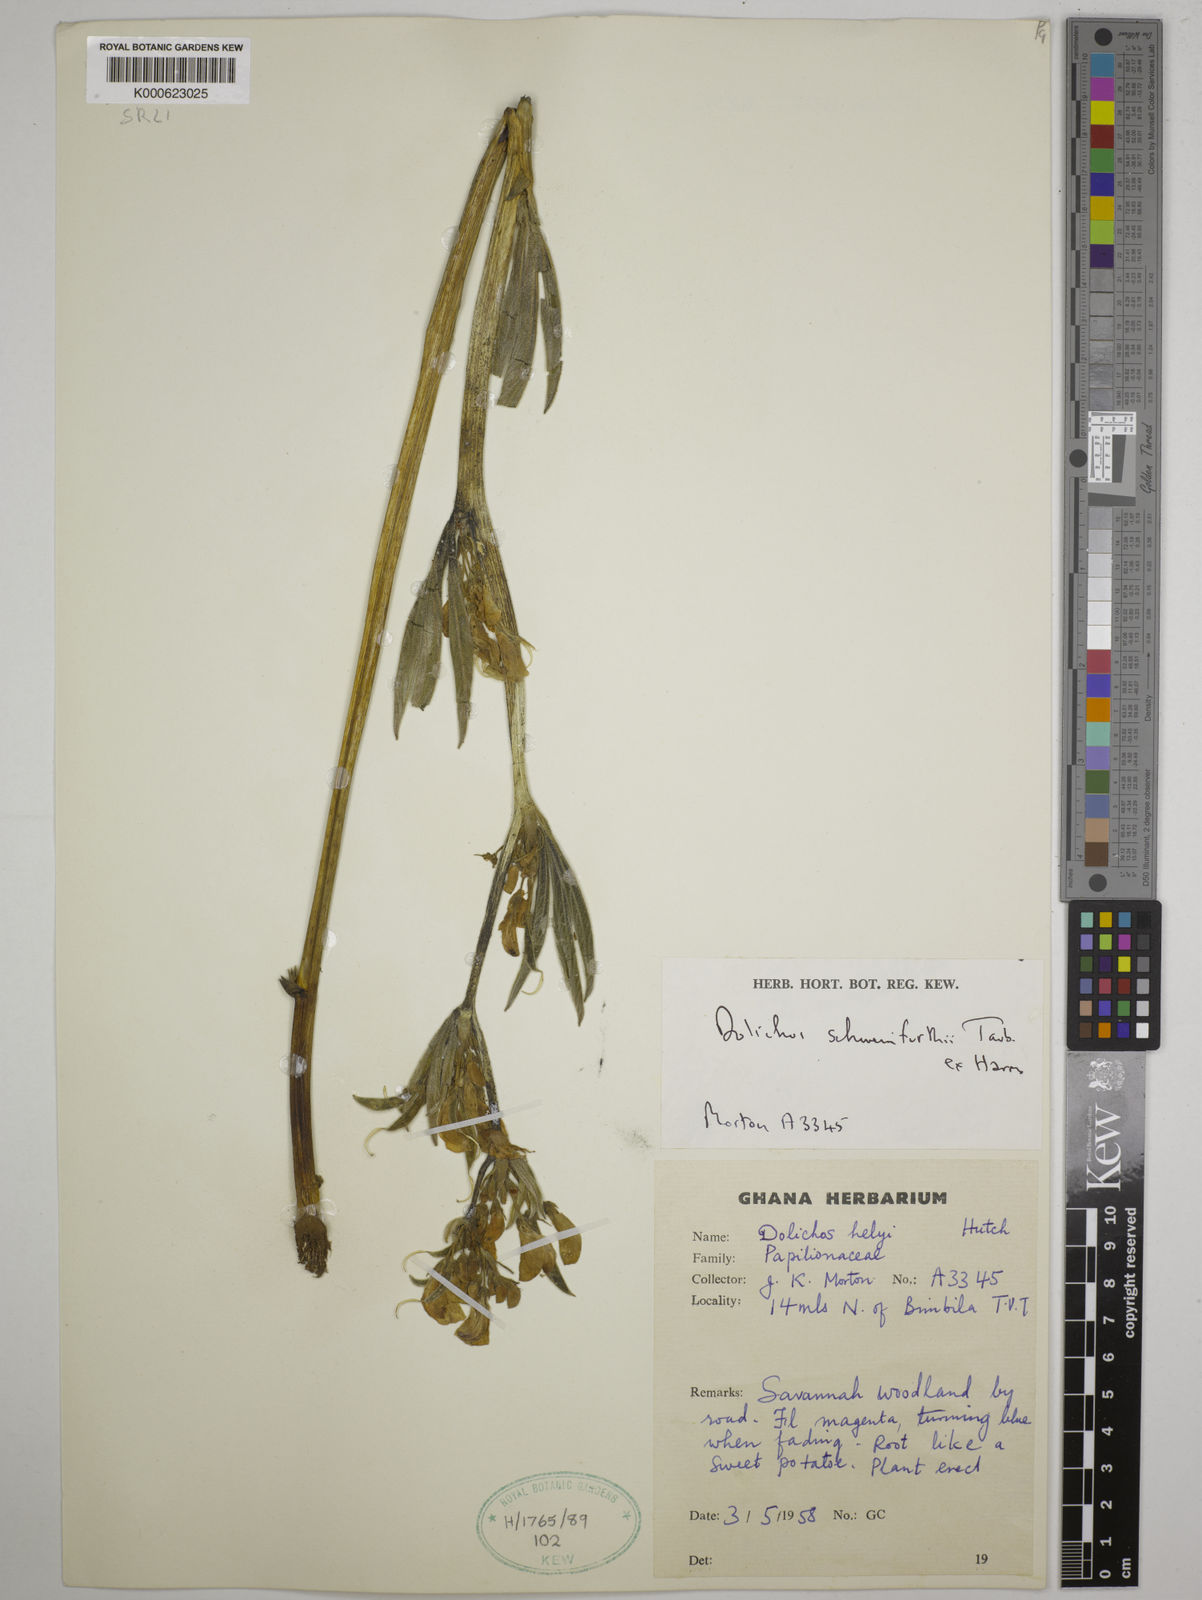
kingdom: Plantae
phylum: Tracheophyta
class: Magnoliopsida
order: Fabales
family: Fabaceae
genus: Dolichos
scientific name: Dolichos
